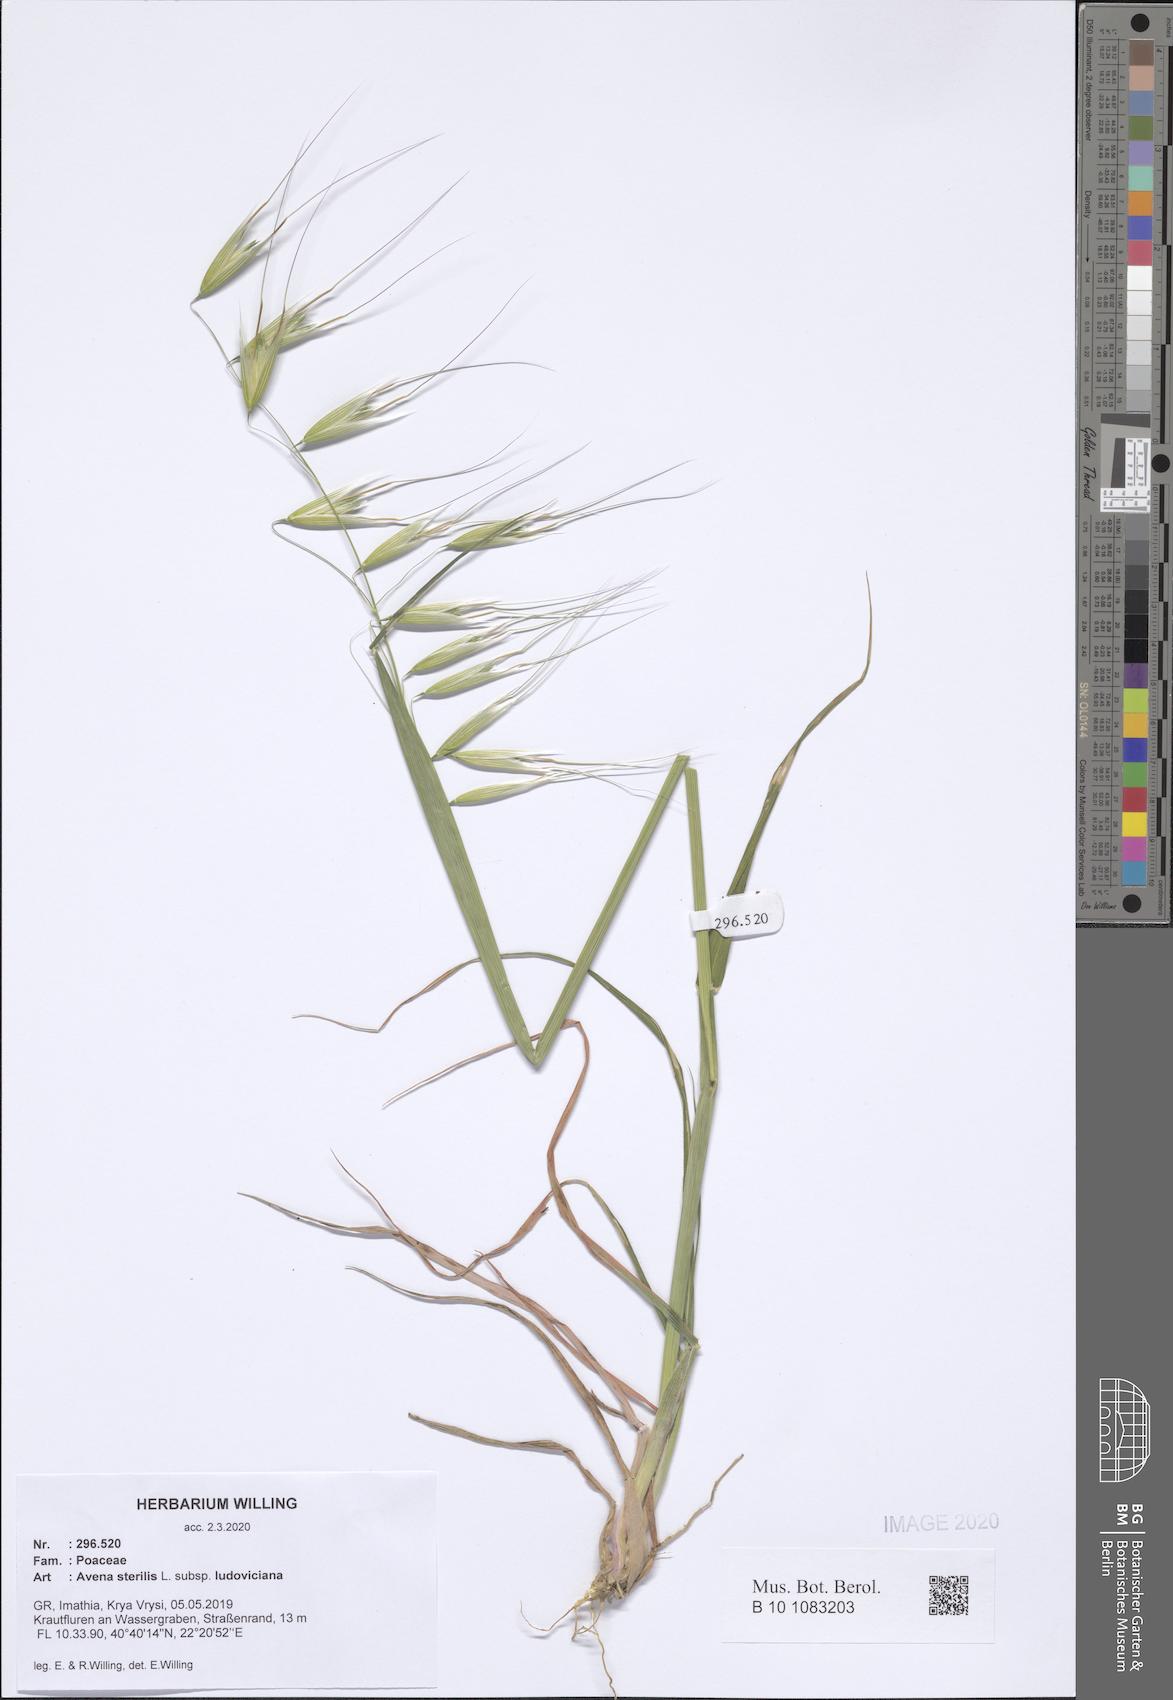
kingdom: Plantae
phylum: Tracheophyta
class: Liliopsida
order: Poales
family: Poaceae
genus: Avena
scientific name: Avena sterilis
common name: Animated oat
